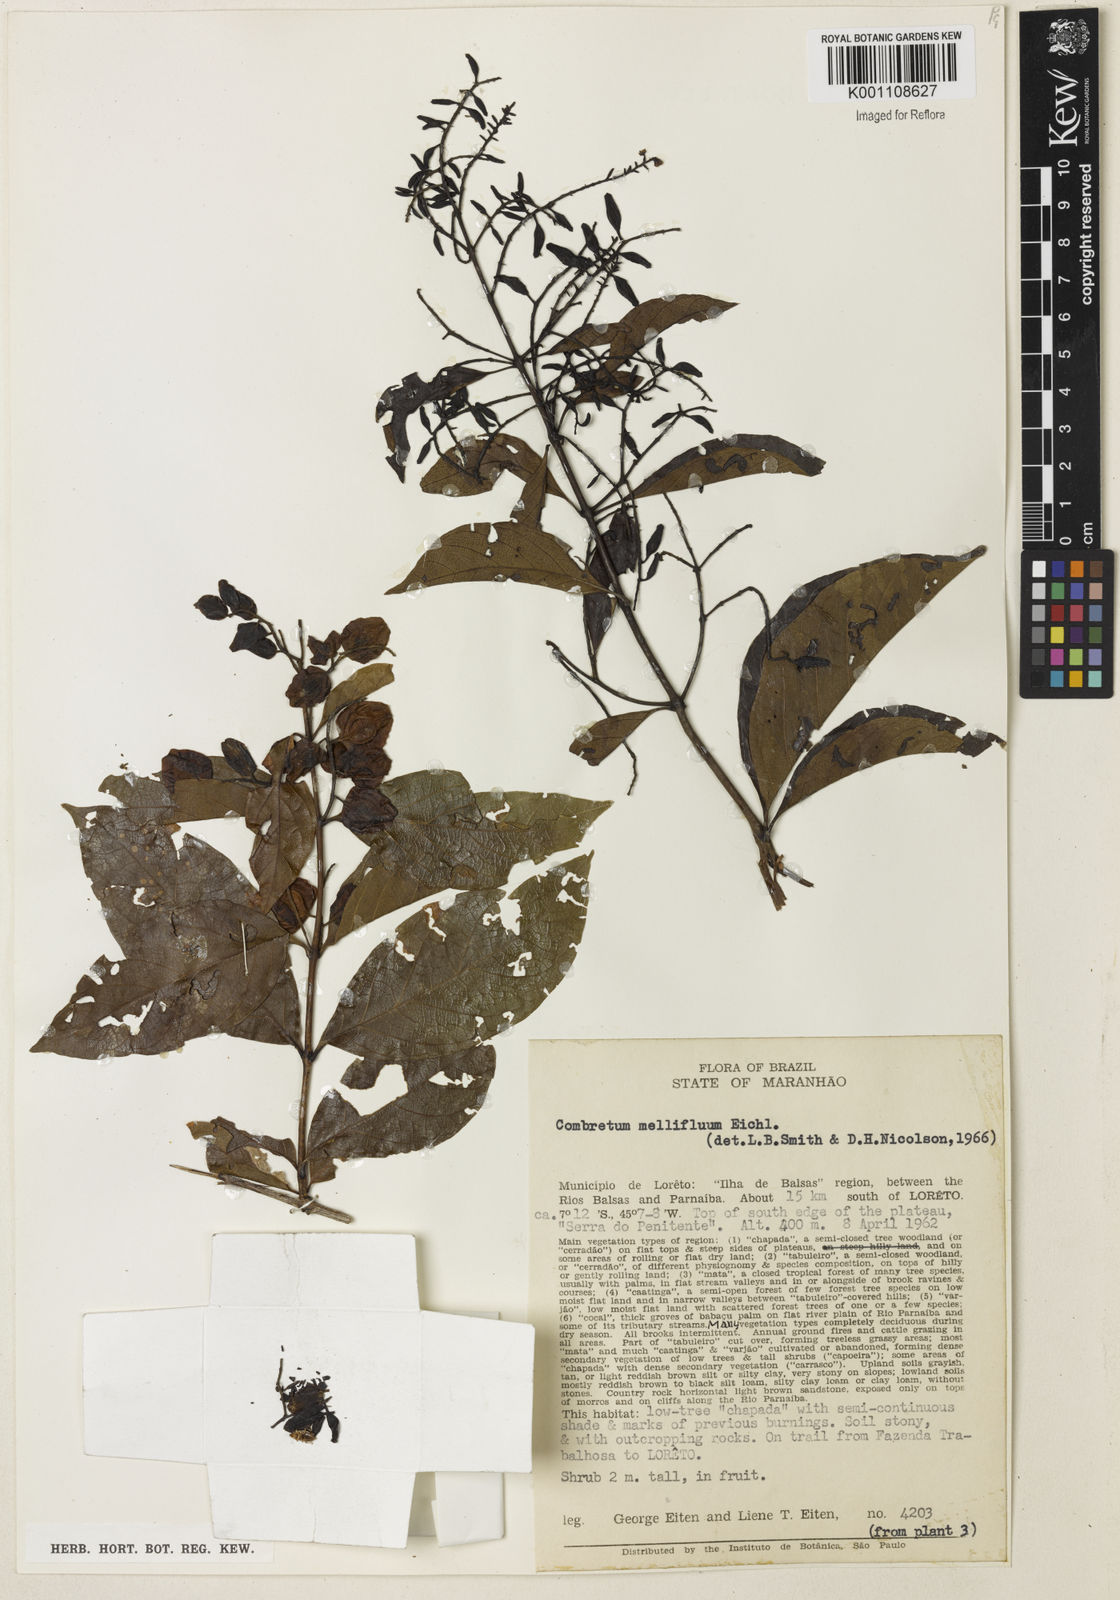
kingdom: Plantae
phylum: Tracheophyta
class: Magnoliopsida
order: Myrtales
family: Combretaceae
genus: Combretum
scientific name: Combretum mellifluum
